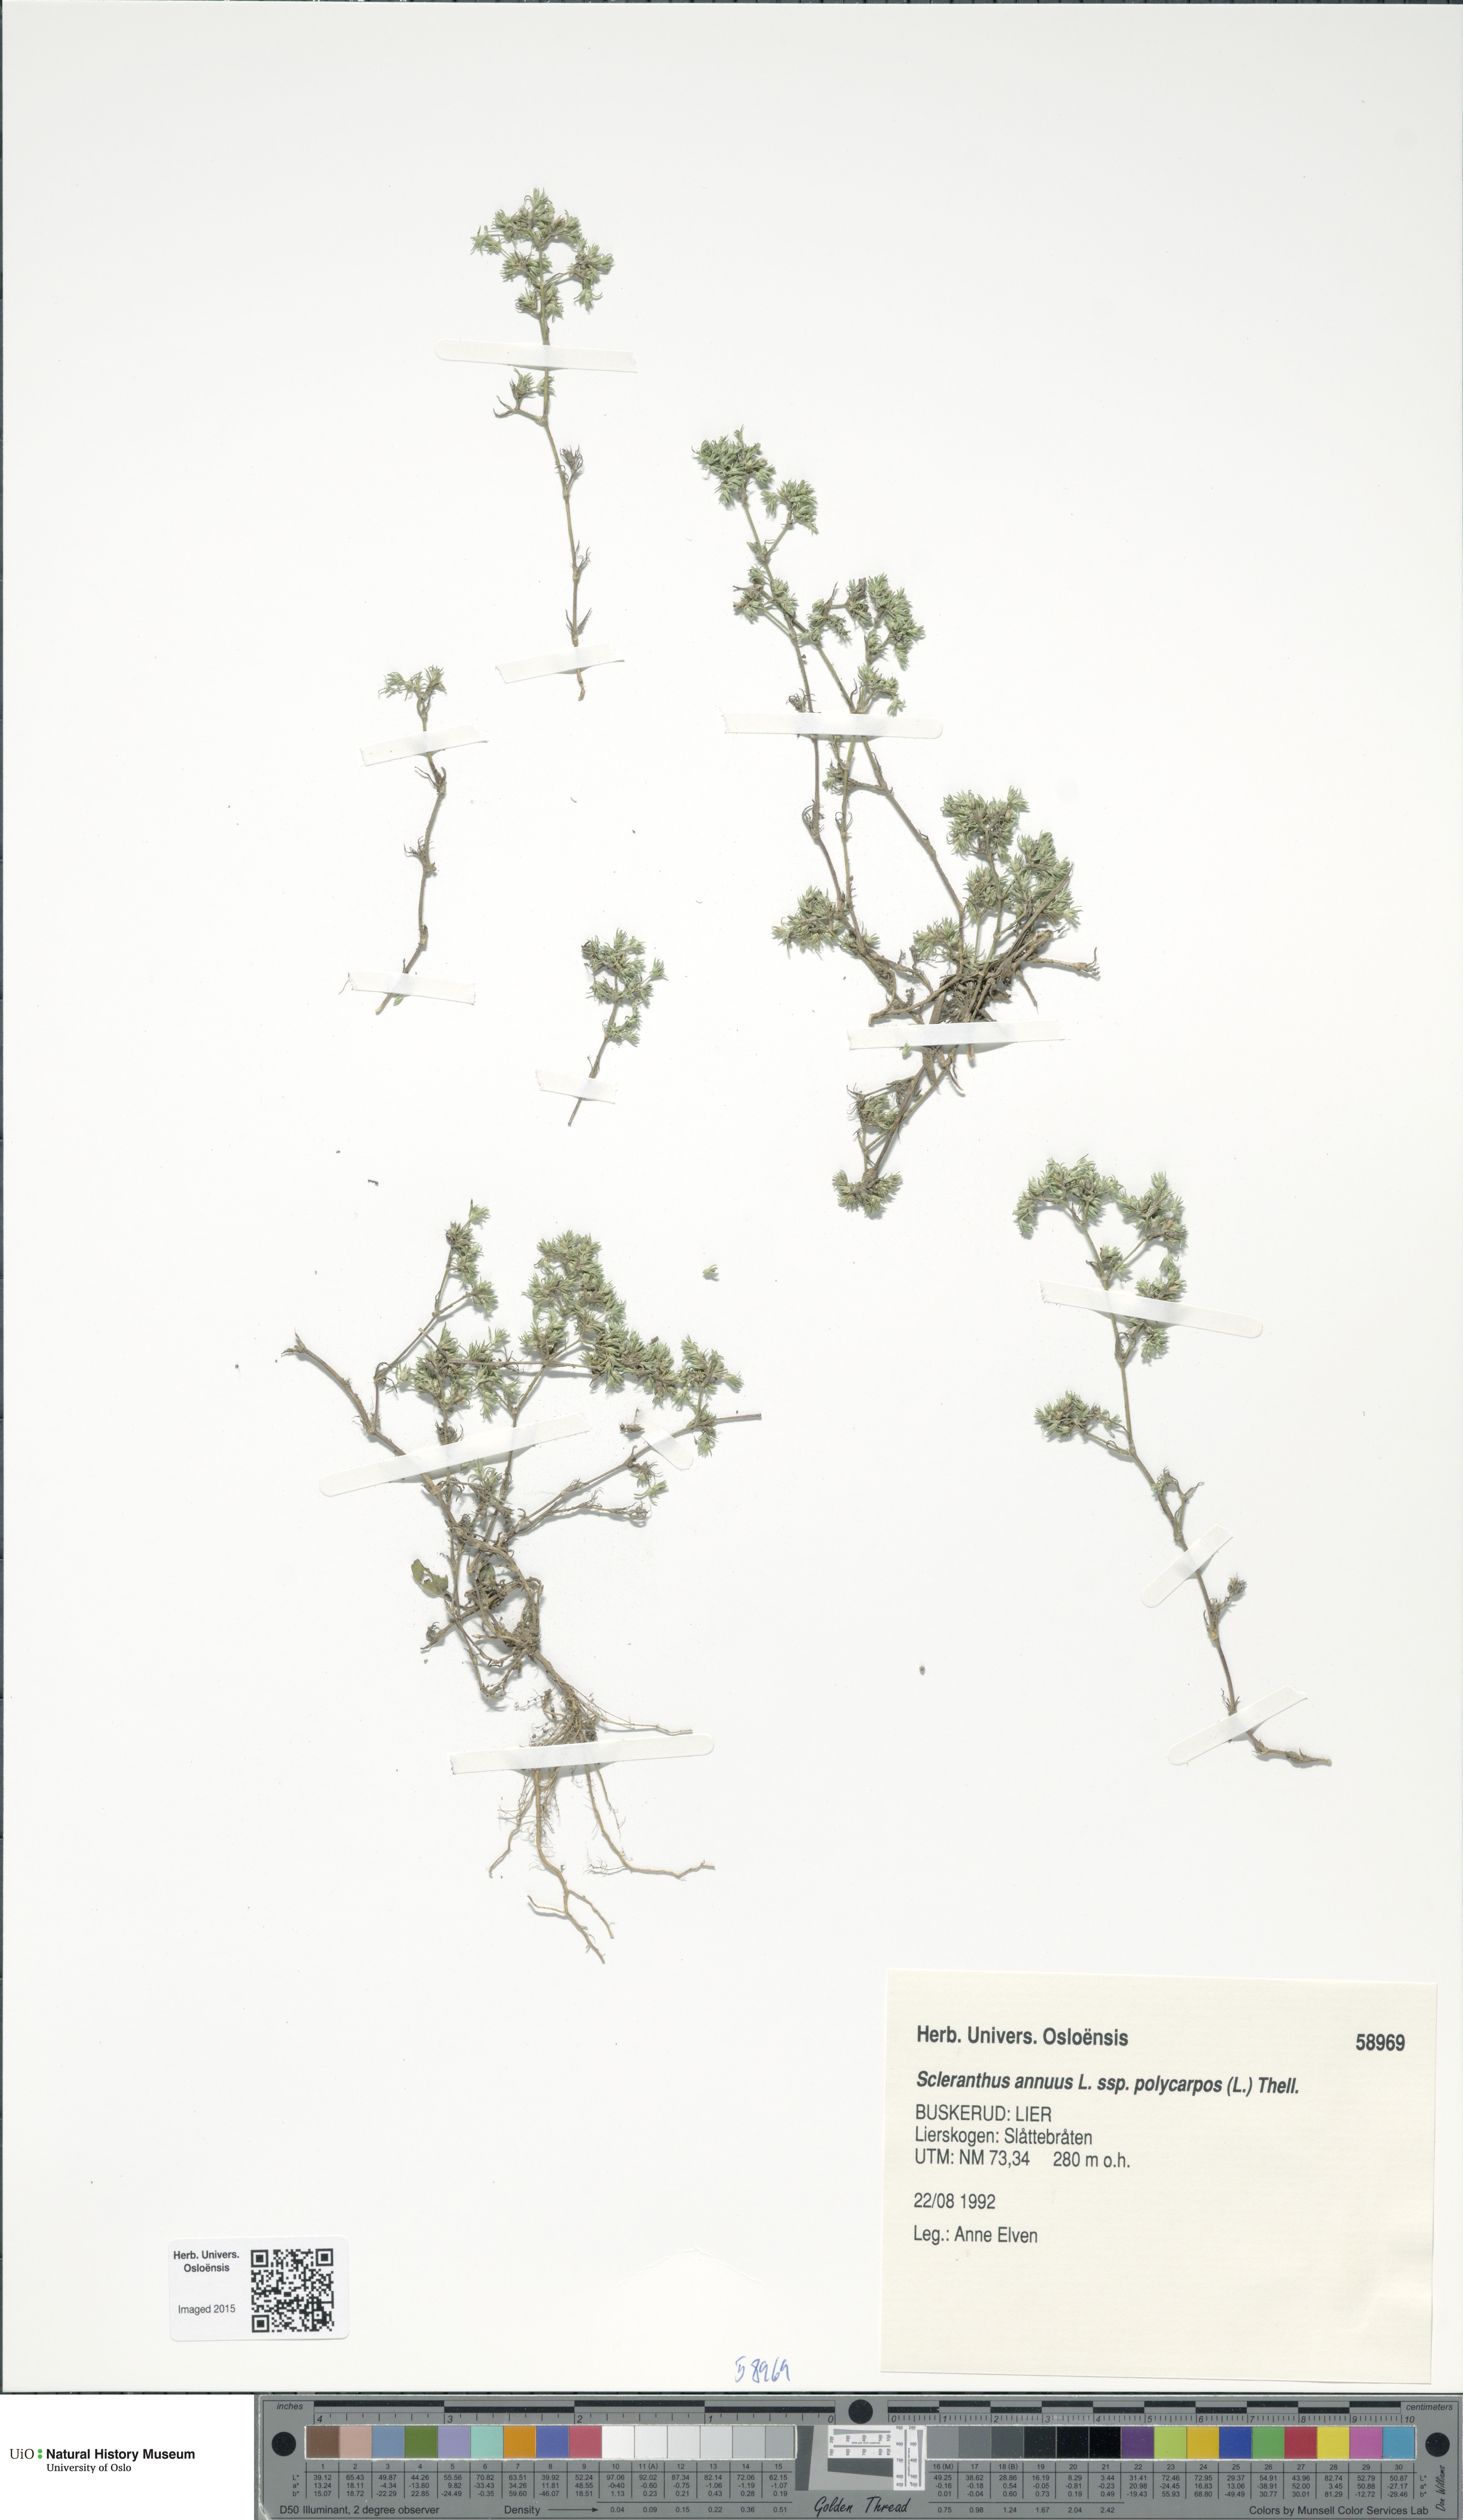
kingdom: Plantae
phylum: Tracheophyta
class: Magnoliopsida
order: Caryophyllales
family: Caryophyllaceae
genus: Scleranthus
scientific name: Scleranthus annuus
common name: Annual knawel
